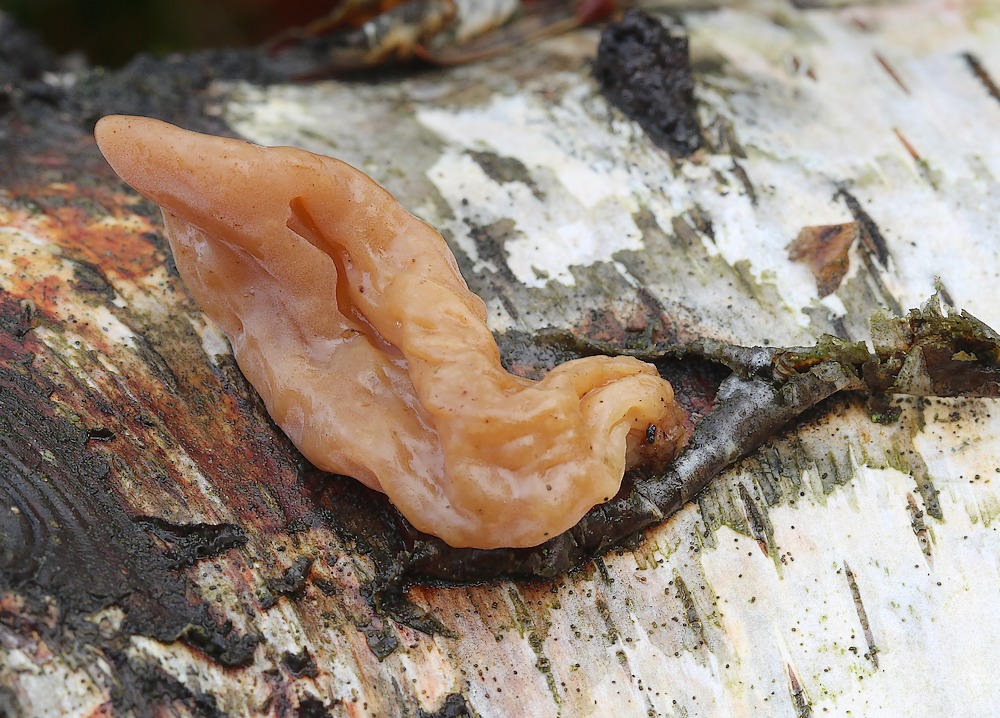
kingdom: Fungi
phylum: Basidiomycota
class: Agaricomycetes
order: Agaricales
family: Typhulaceae
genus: Typhula
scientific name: Typhula contorta
